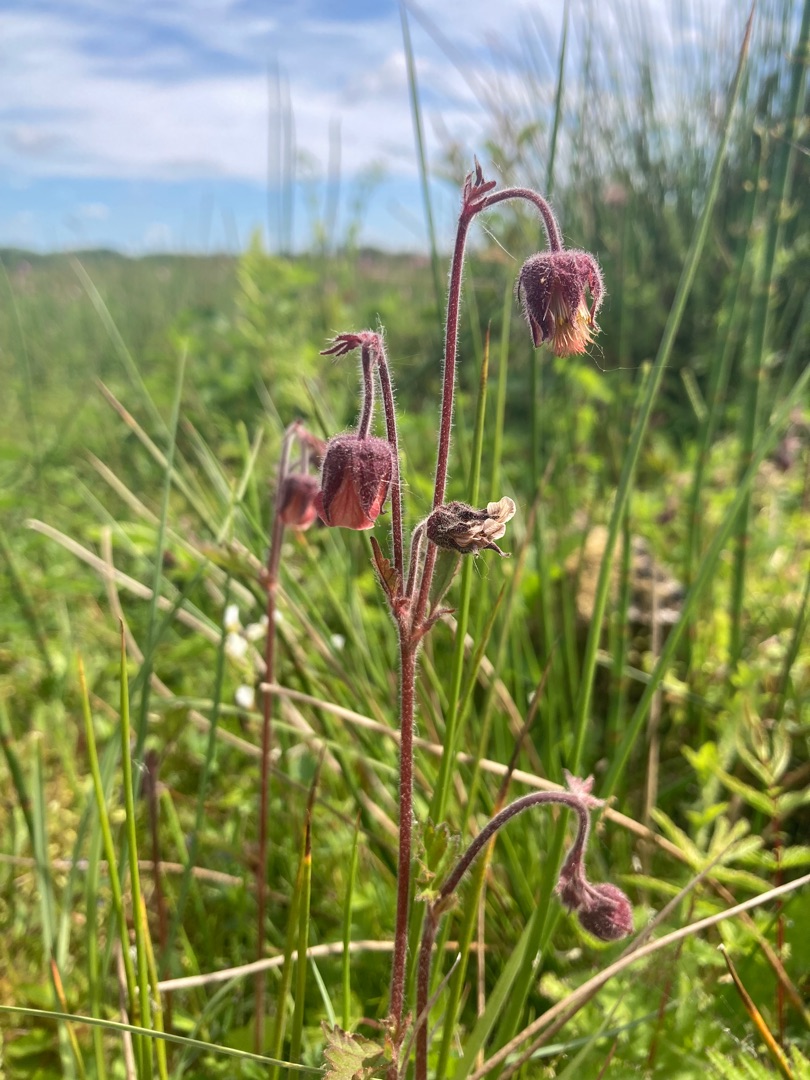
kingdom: Plantae
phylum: Tracheophyta
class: Magnoliopsida
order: Rosales
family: Rosaceae
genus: Geum
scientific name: Geum rivale
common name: Eng-nellikerod
